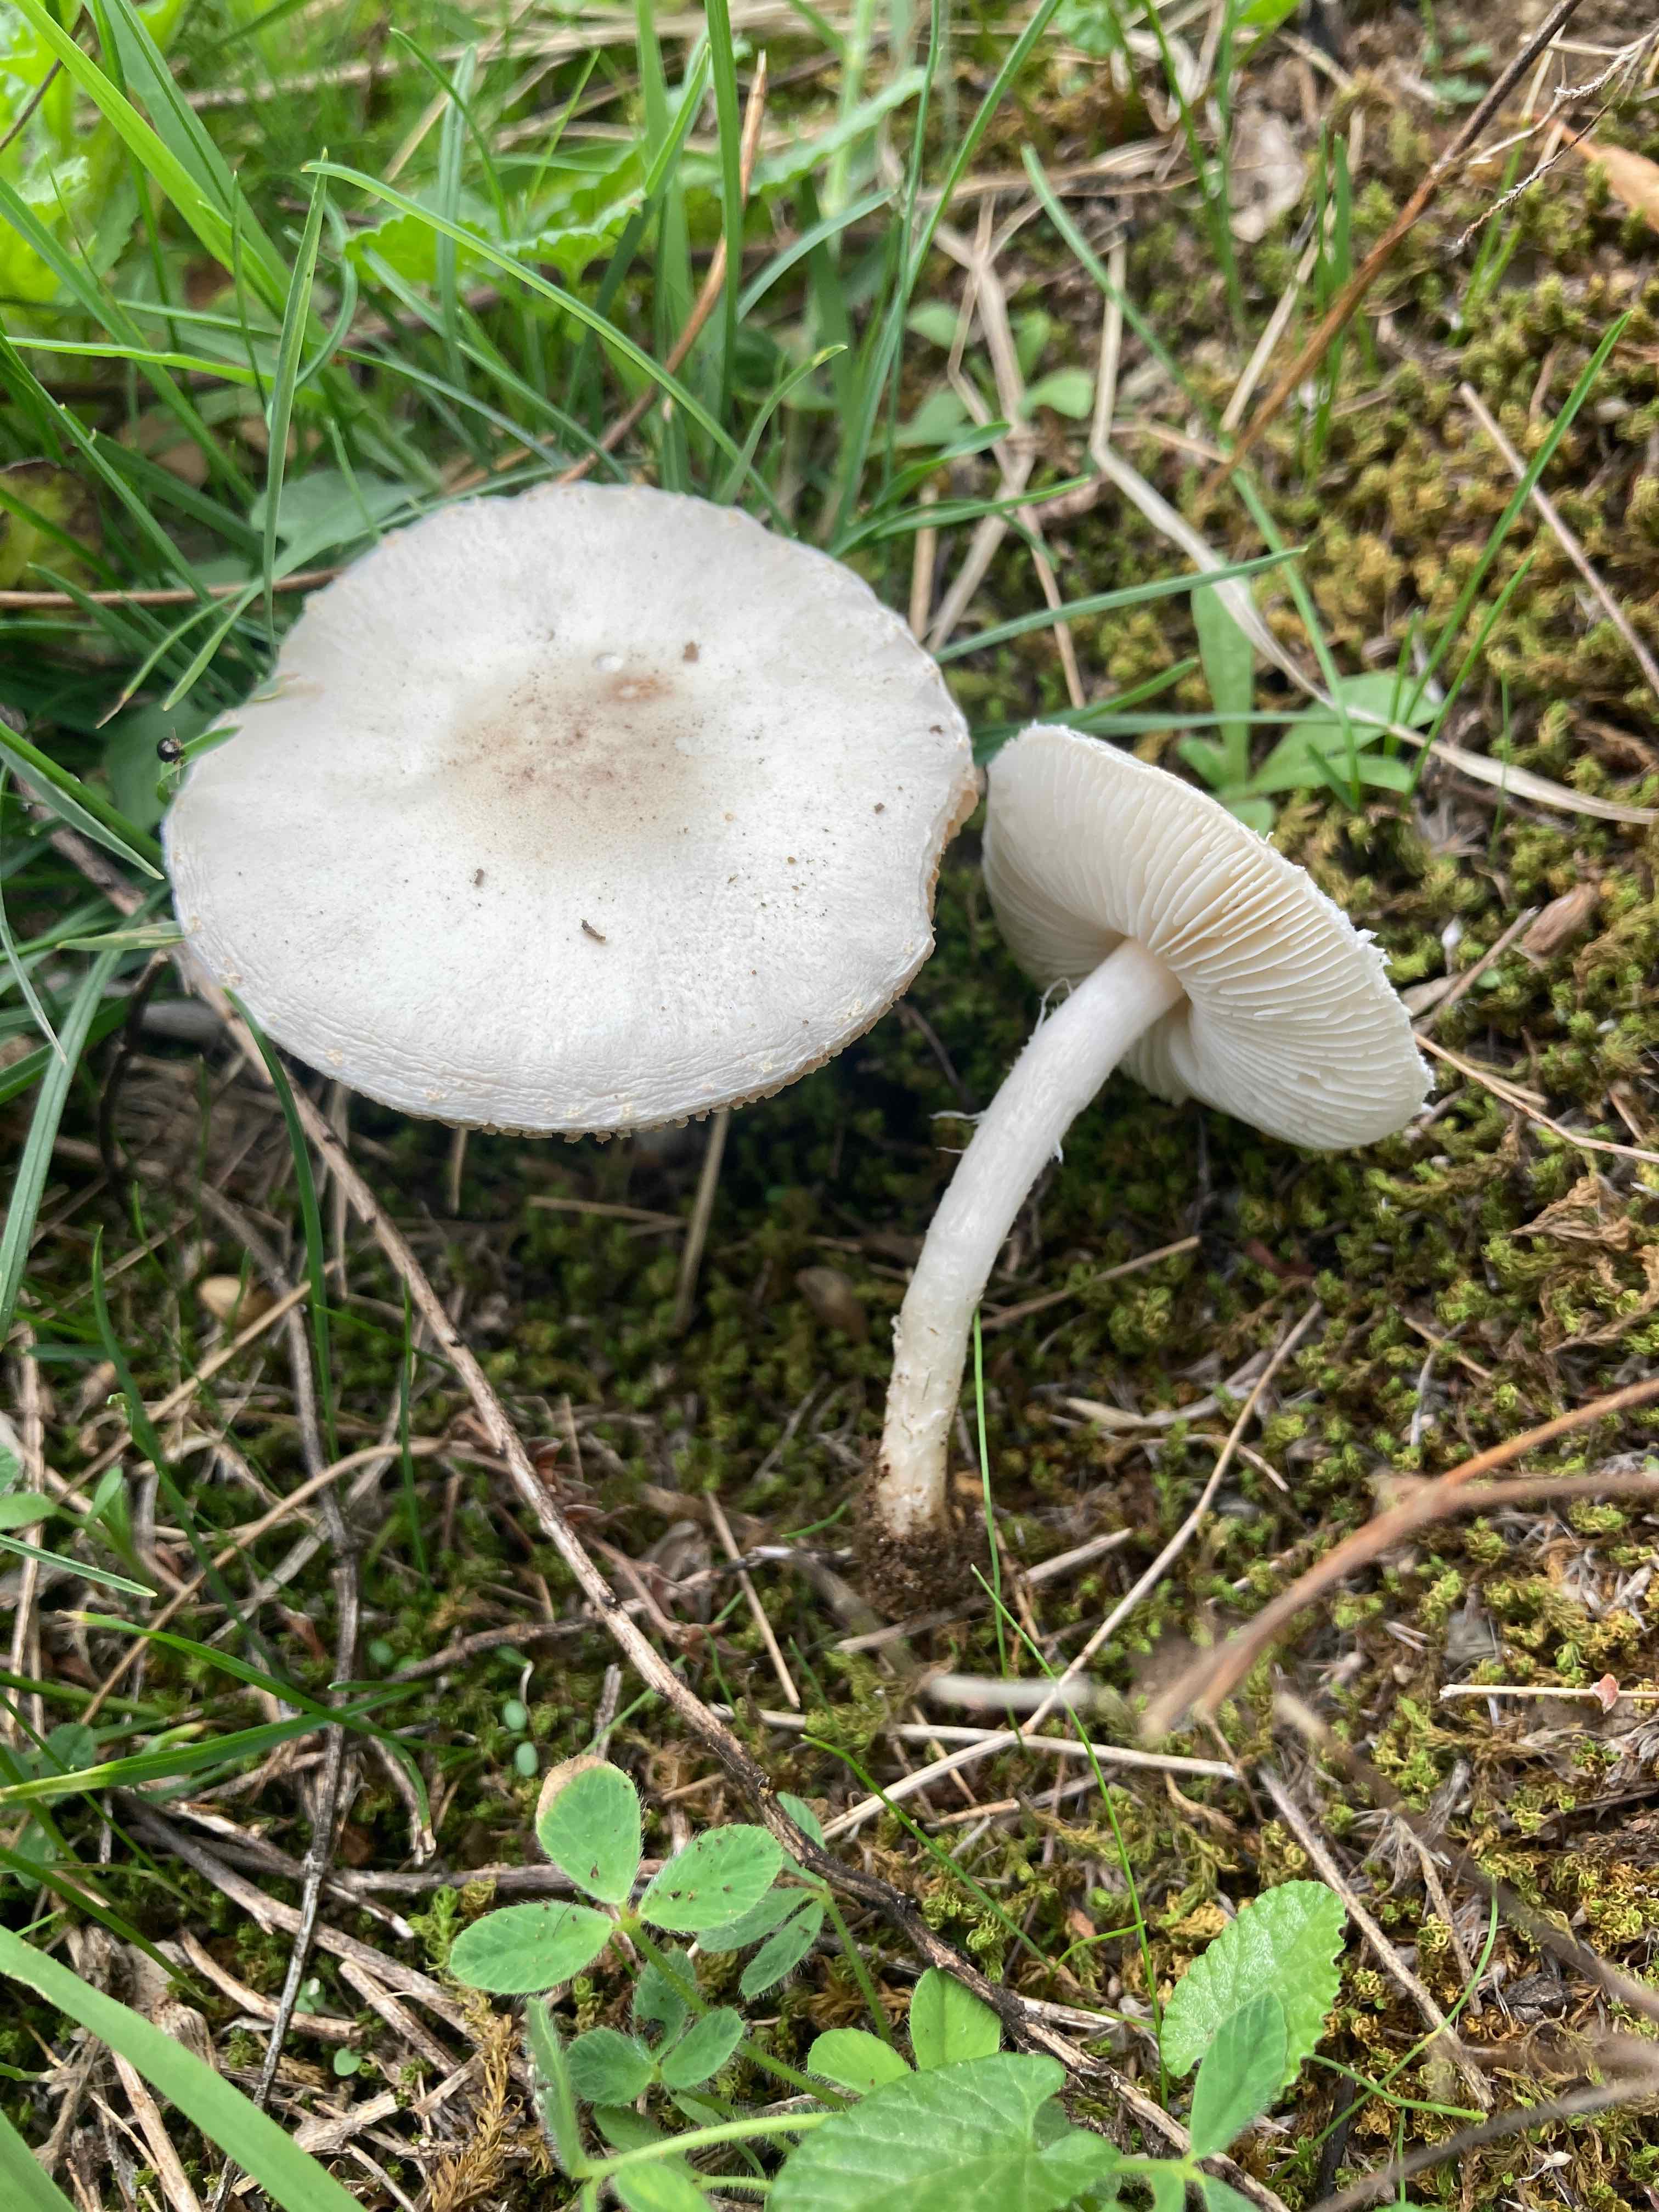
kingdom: Fungi
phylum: Basidiomycota
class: Agaricomycetes
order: Agaricales
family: Agaricaceae
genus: Lepiota
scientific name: Lepiota erminea
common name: hvid parasolhat
